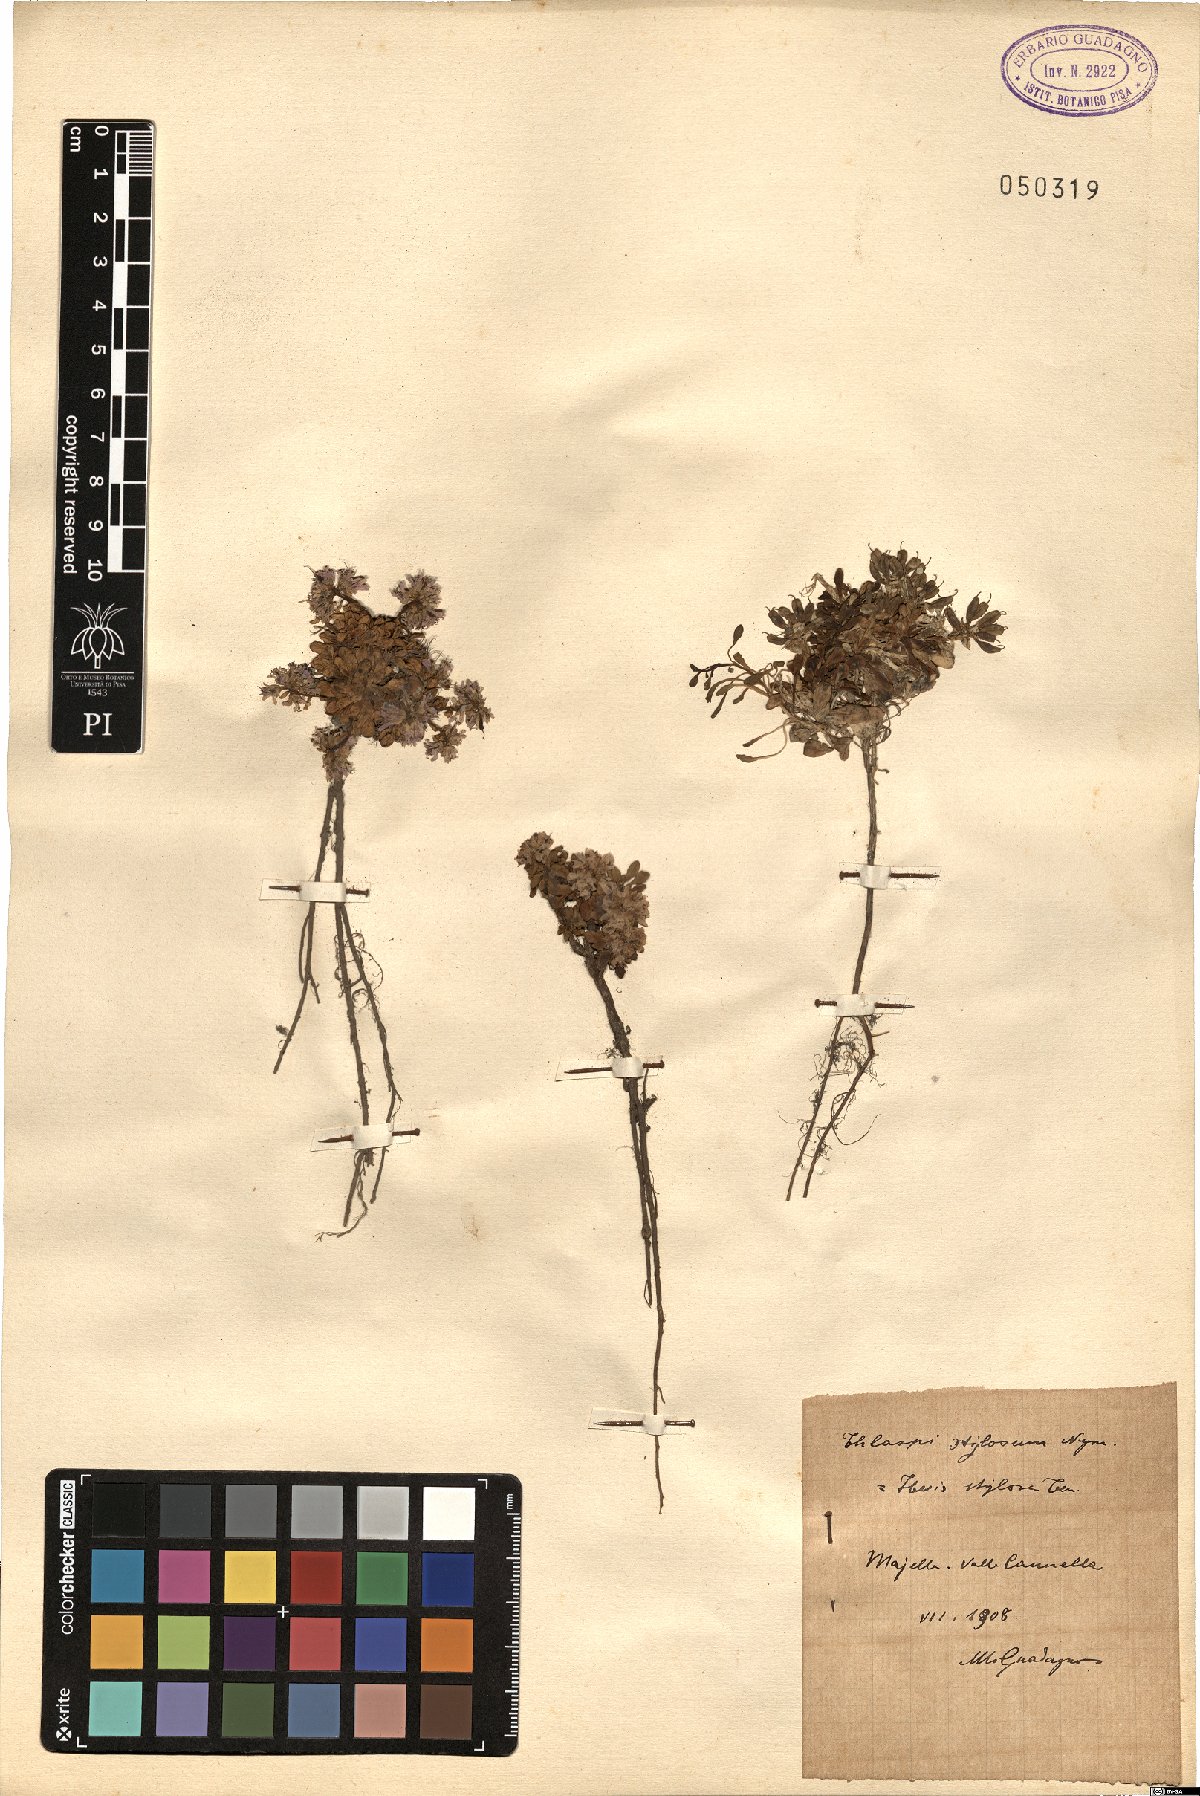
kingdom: Plantae
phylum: Tracheophyta
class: Magnoliopsida
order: Brassicales
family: Brassicaceae
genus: Noccaea
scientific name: Noccaea stilosa
